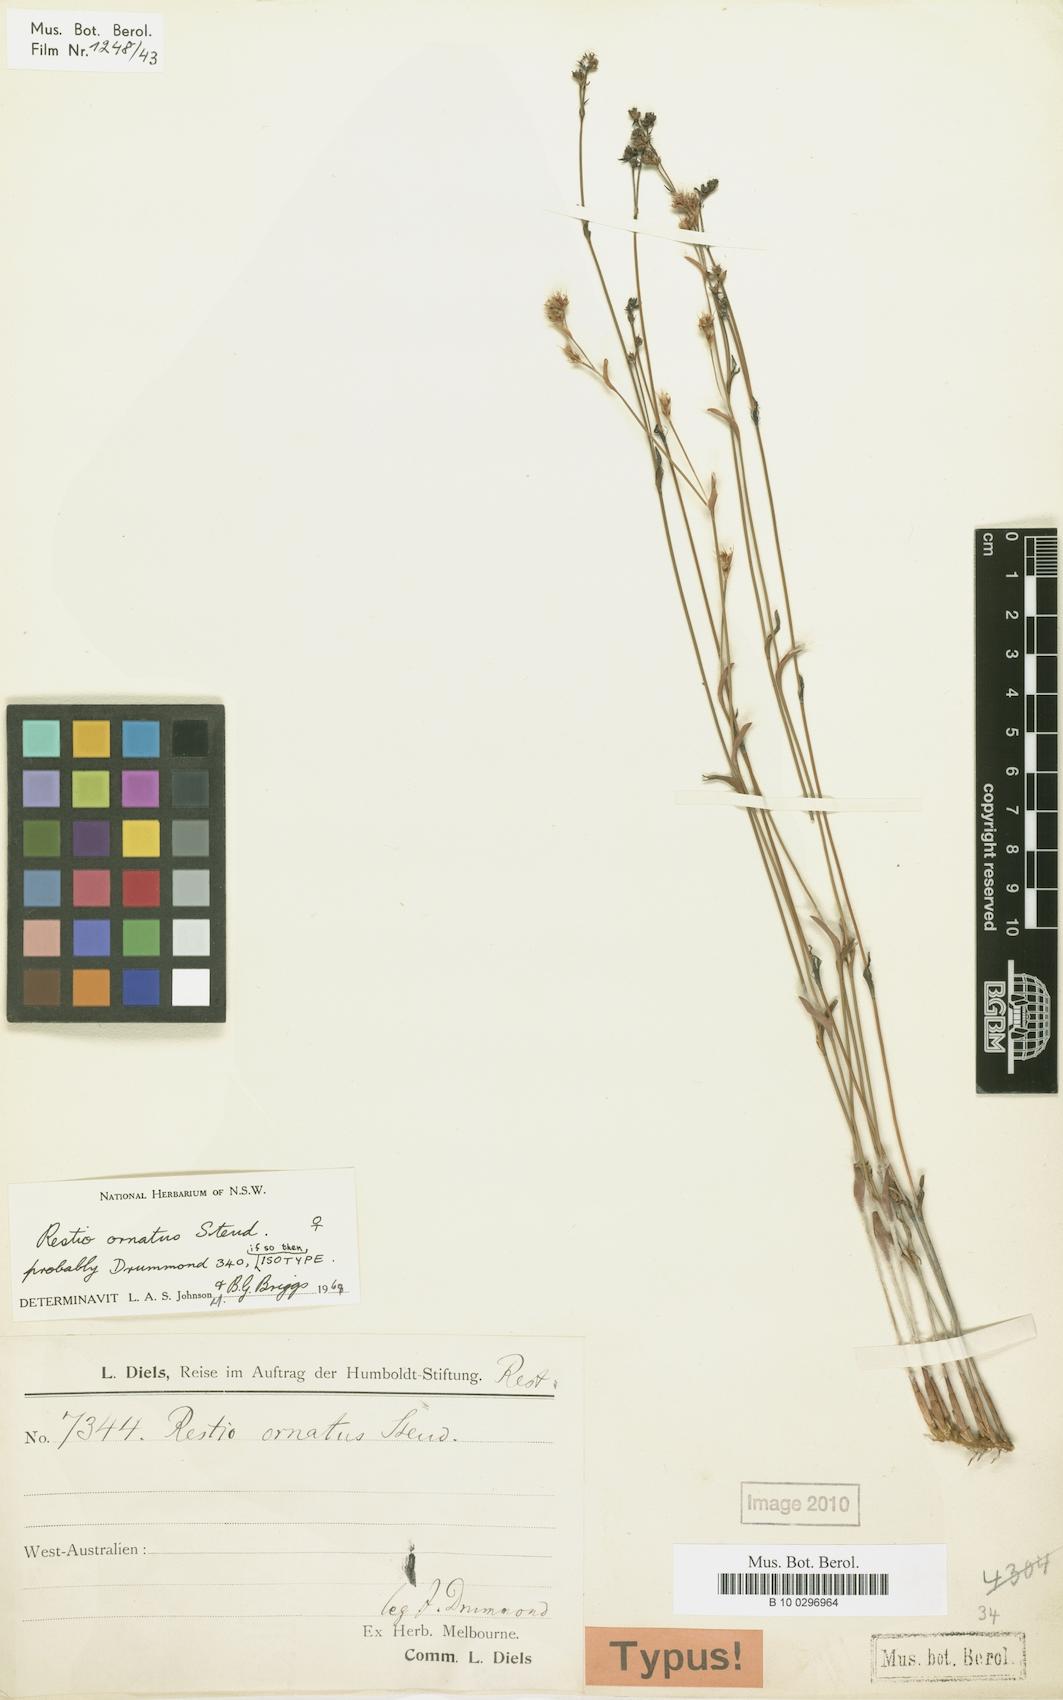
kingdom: Plantae
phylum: Tracheophyta
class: Liliopsida
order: Poales
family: Restionaceae
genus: Chordifex
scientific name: Chordifex ornatus
